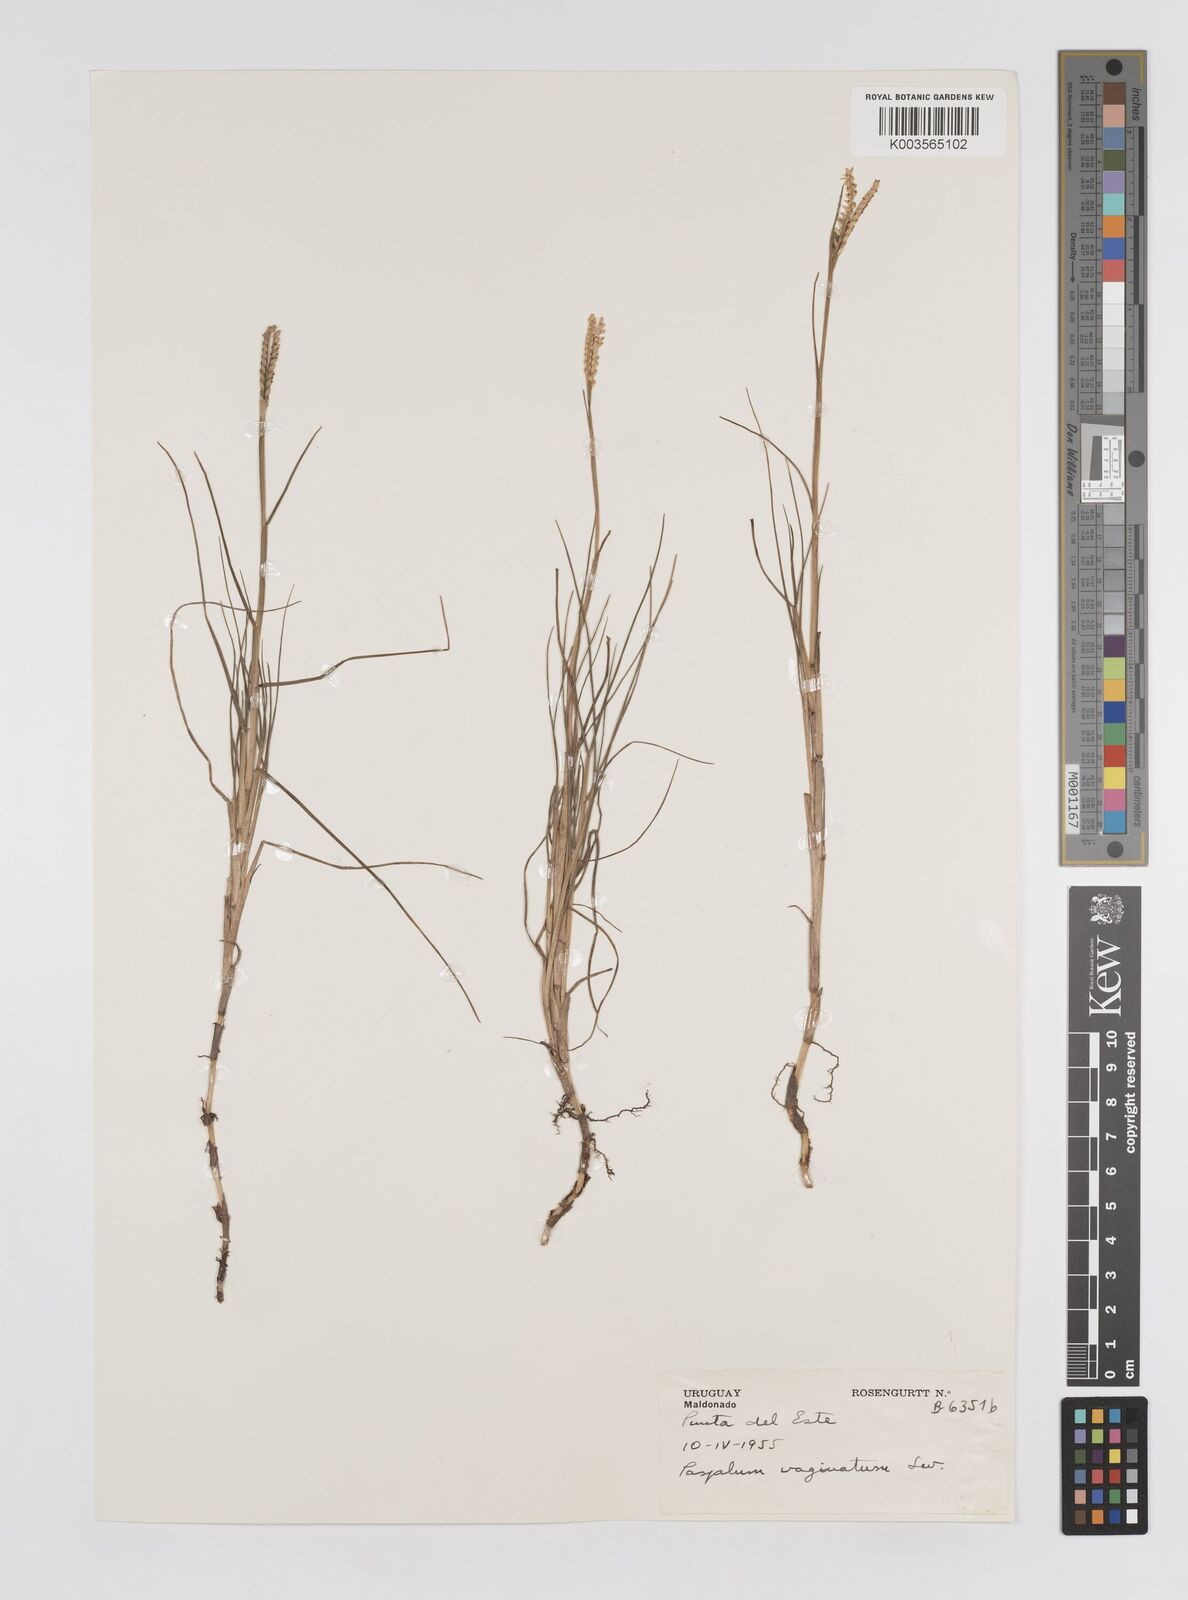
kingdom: Plantae
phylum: Tracheophyta
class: Liliopsida
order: Poales
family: Poaceae
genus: Paspalum
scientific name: Paspalum vaginatum
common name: Seashore paspalum
